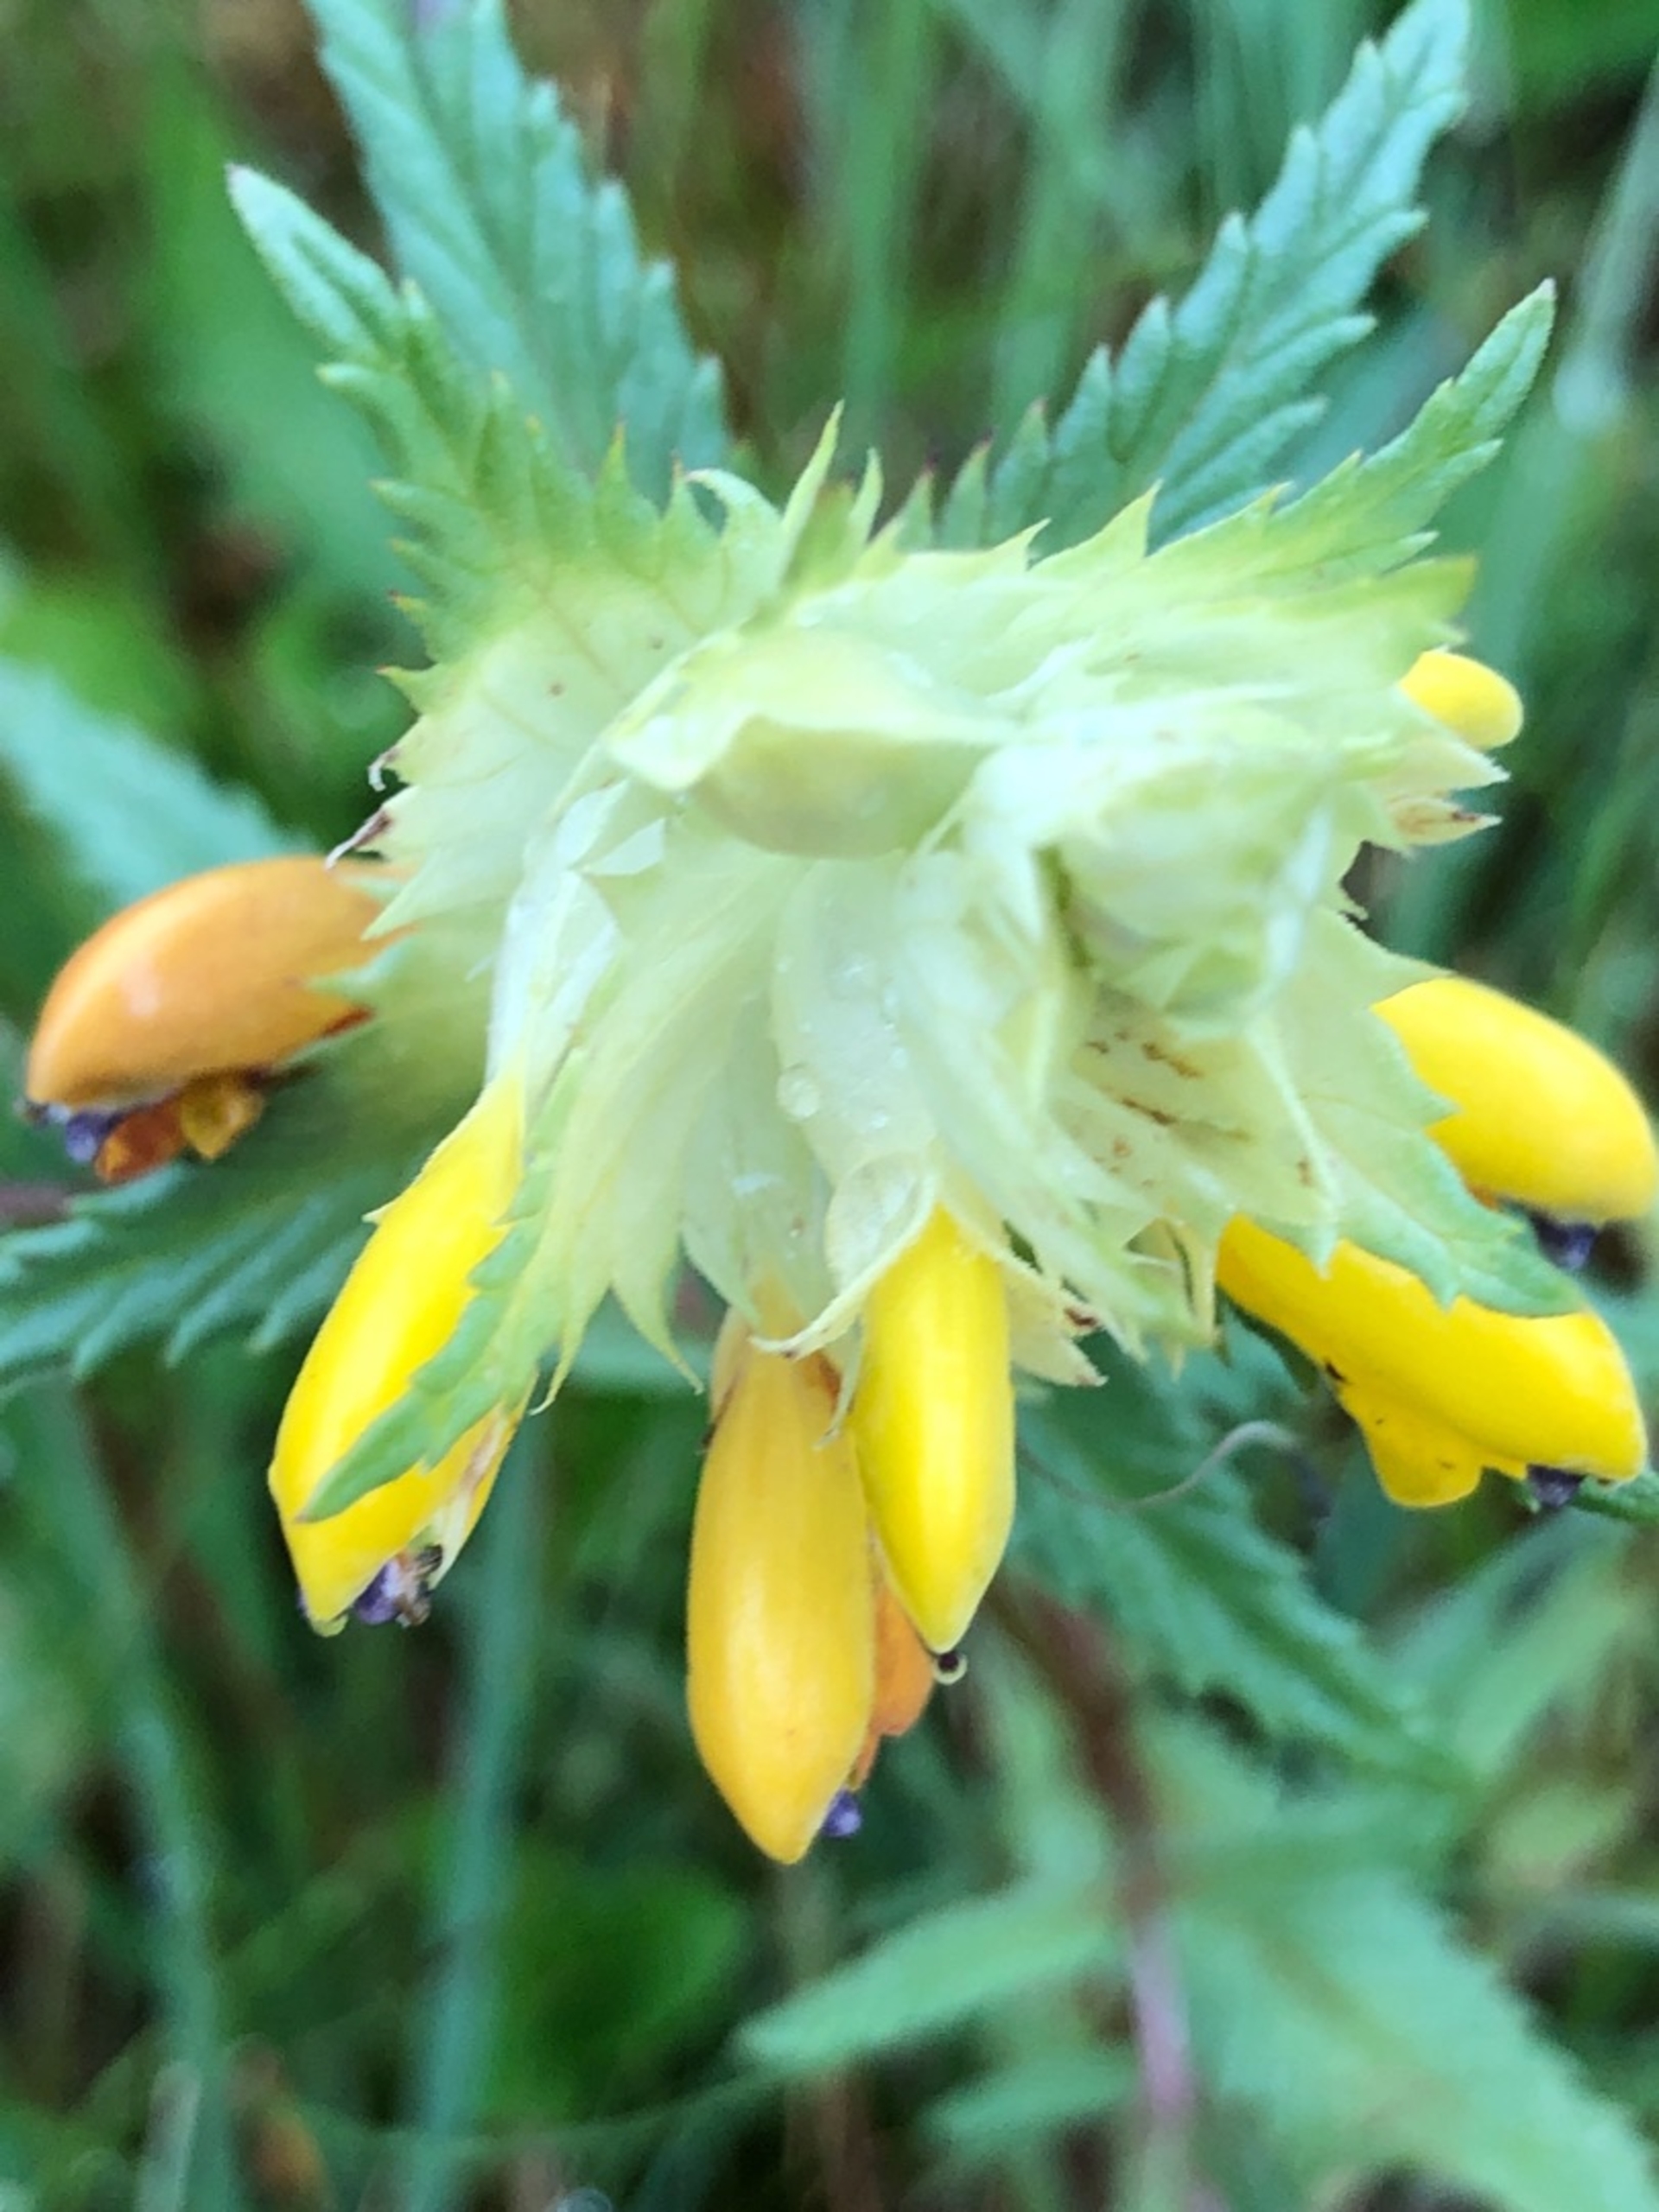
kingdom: Plantae
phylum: Tracheophyta
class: Magnoliopsida
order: Lamiales
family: Orobanchaceae
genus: Rhinanthus
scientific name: Rhinanthus
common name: Stor skjaller
